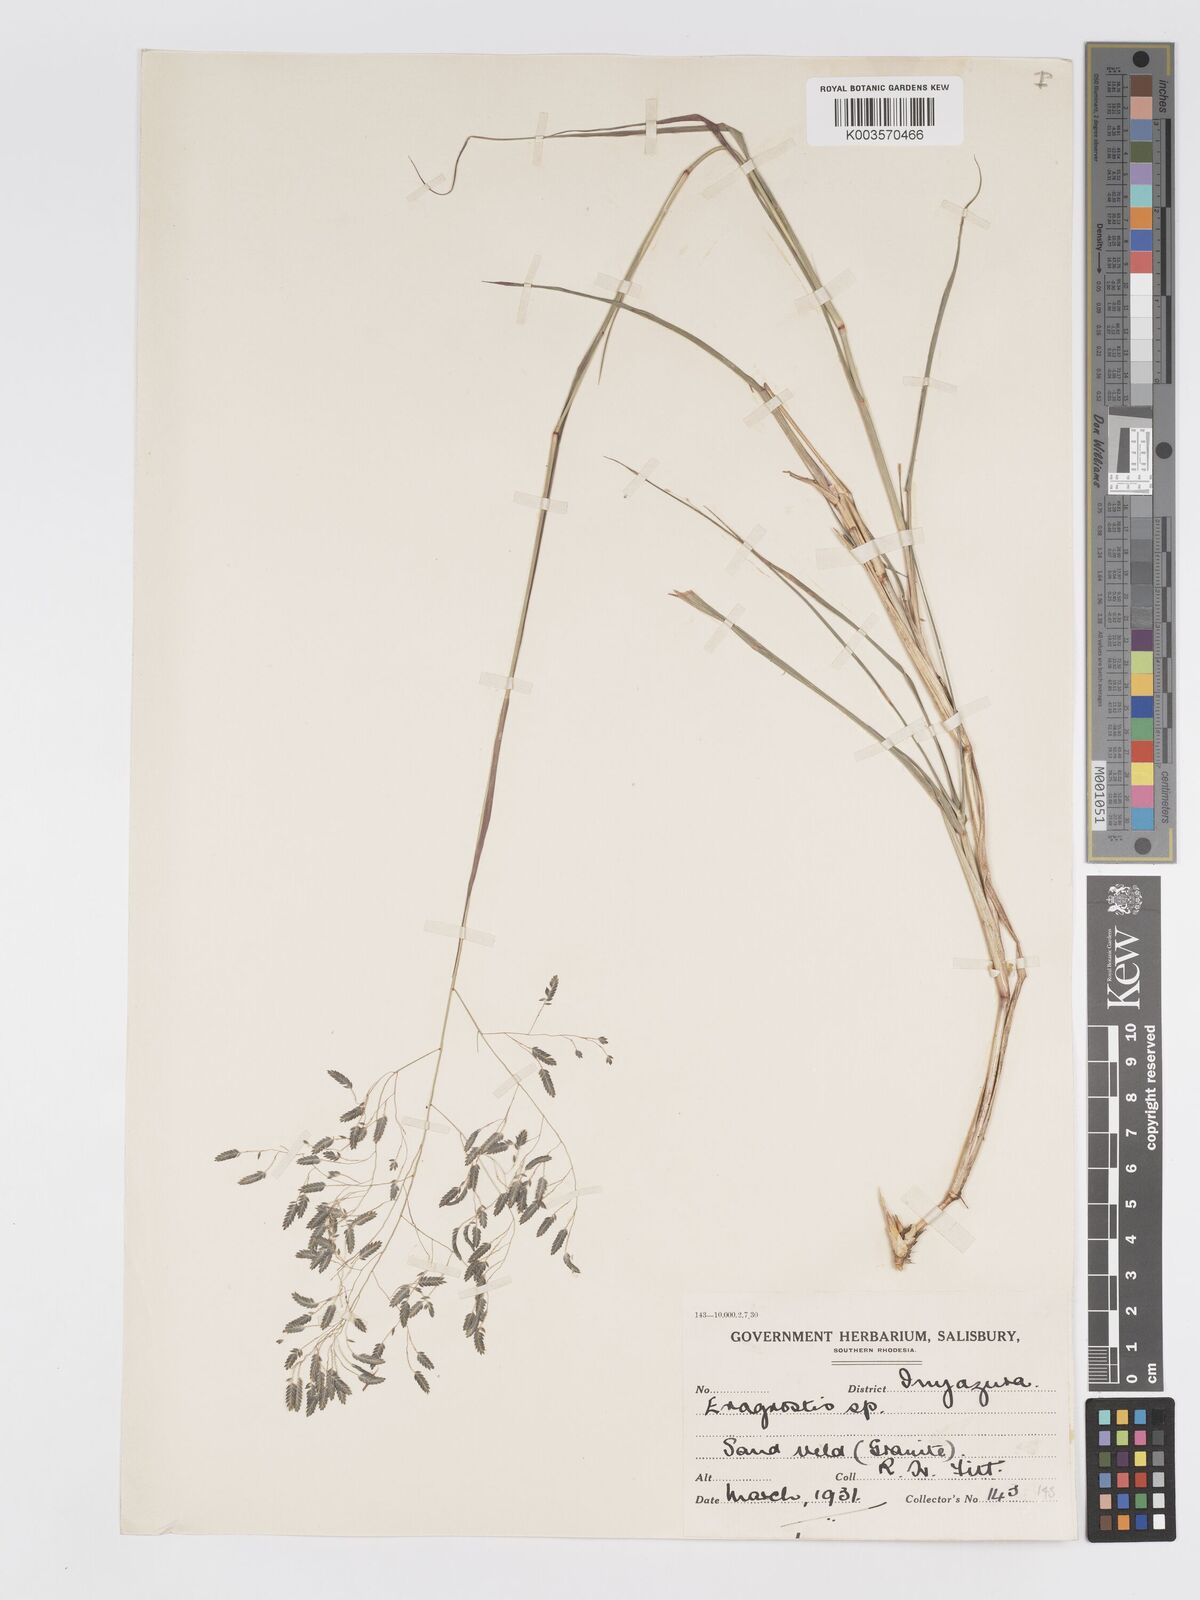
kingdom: Plantae
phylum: Tracheophyta
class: Liliopsida
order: Poales
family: Poaceae
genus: Eragrostis
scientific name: Eragrostis inamoena
